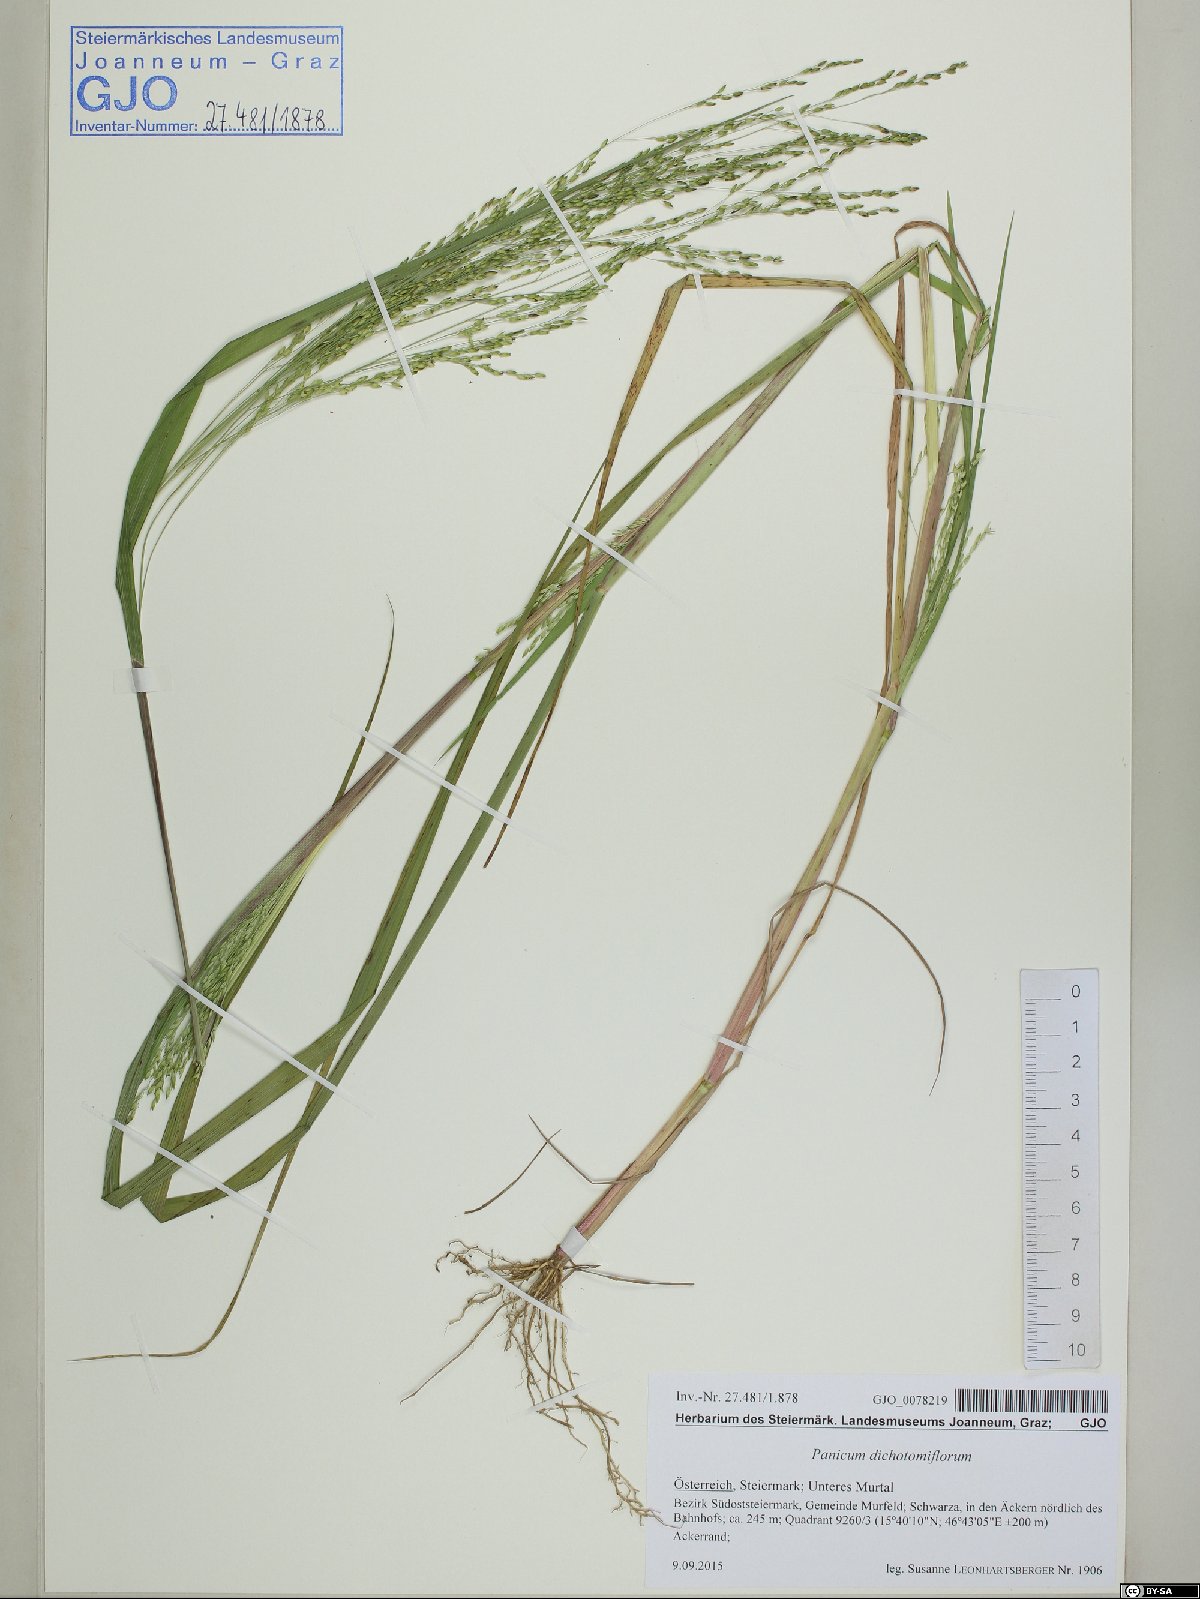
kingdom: Plantae
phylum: Tracheophyta
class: Liliopsida
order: Poales
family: Poaceae
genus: Panicum
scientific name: Panicum dichotomiflorum
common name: Autumn millet
